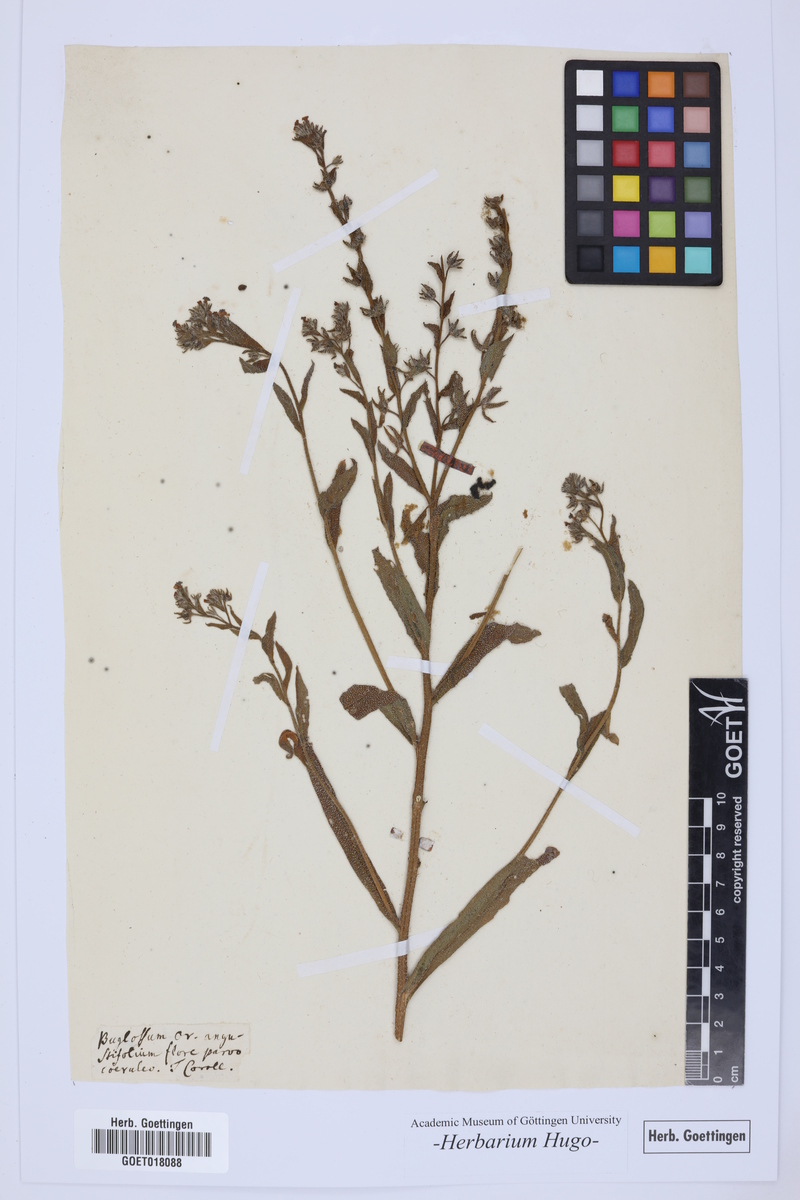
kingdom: Plantae
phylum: Tracheophyta
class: Magnoliopsida
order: Boraginales
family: Boraginaceae
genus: Lycopsis
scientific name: Lycopsis arvensis
